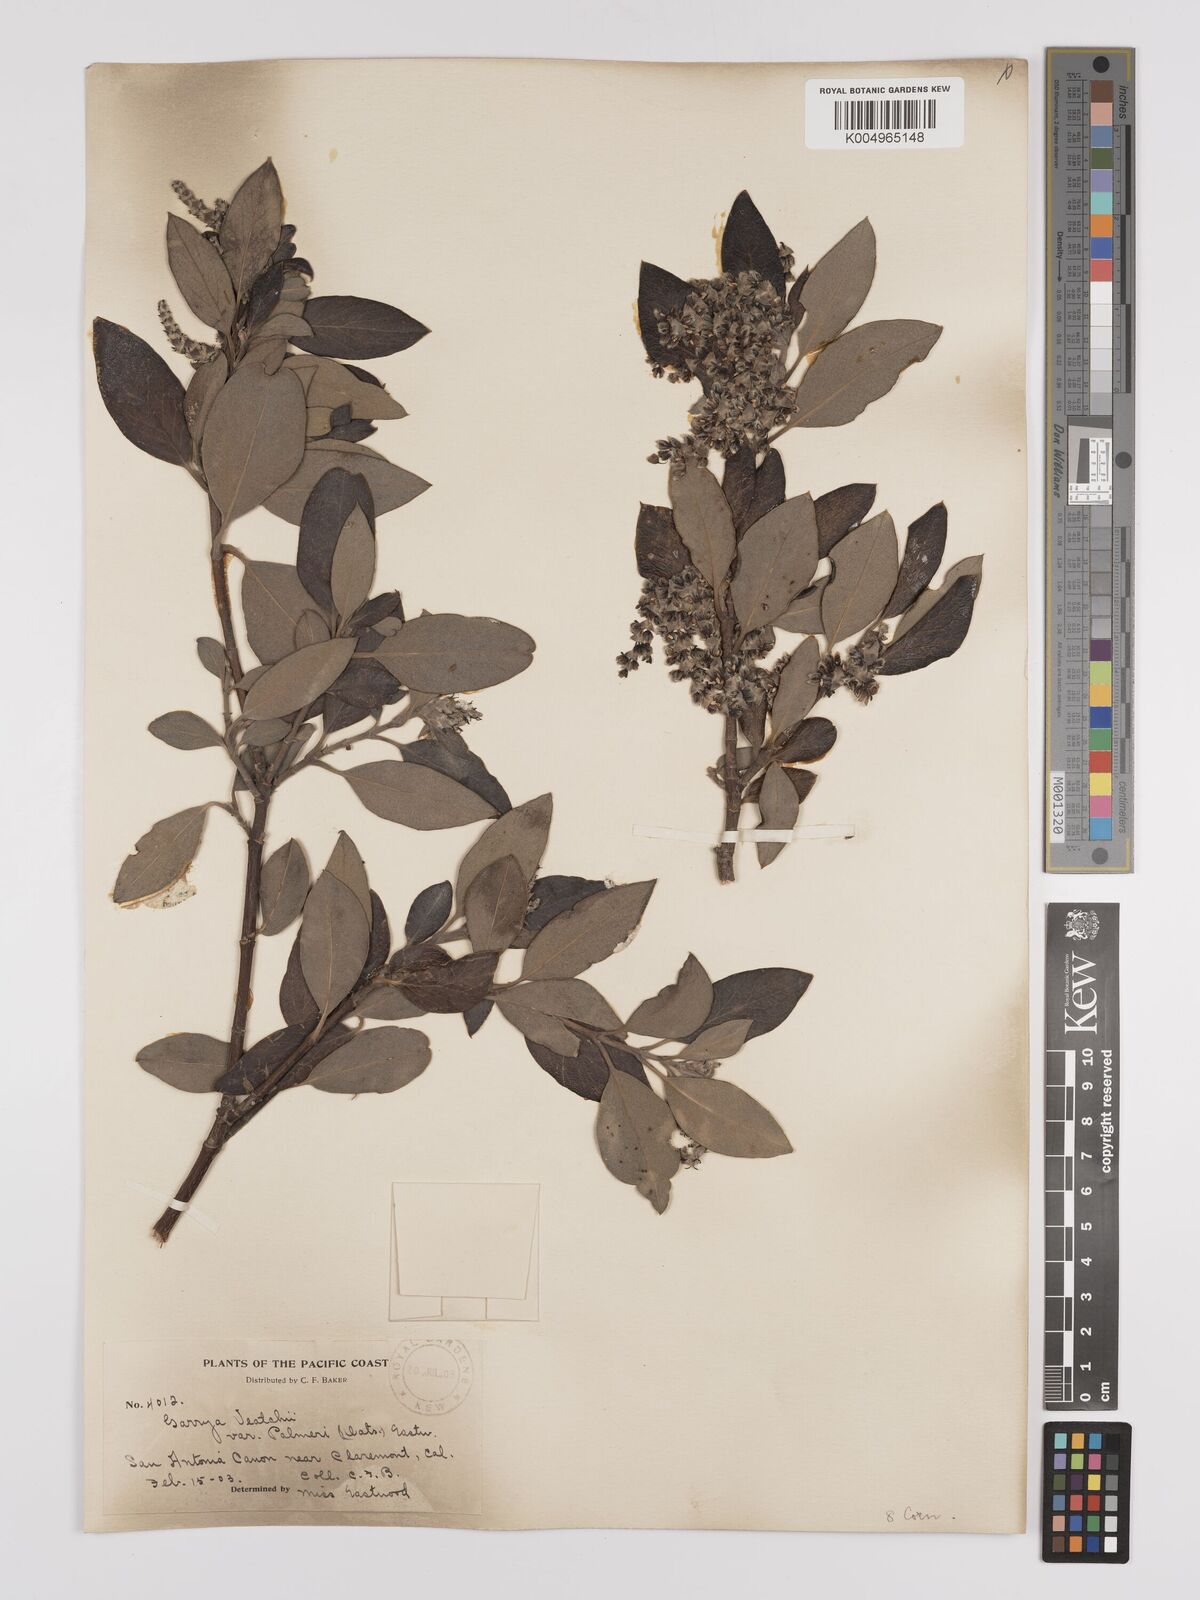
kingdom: Plantae
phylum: Tracheophyta
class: Magnoliopsida
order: Garryales
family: Garryaceae
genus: Garrya
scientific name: Garrya veatchii
